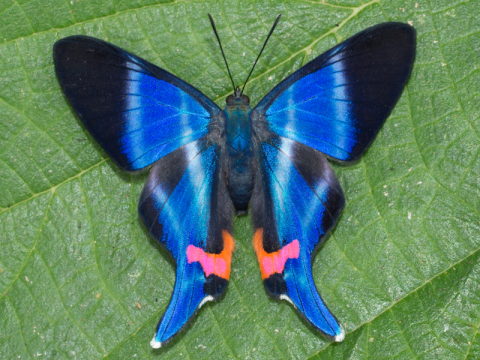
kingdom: Animalia
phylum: Arthropoda
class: Insecta
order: Lepidoptera
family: Riodinidae
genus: Rhetus
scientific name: Rhetus dysonii
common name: Blue Doctor
